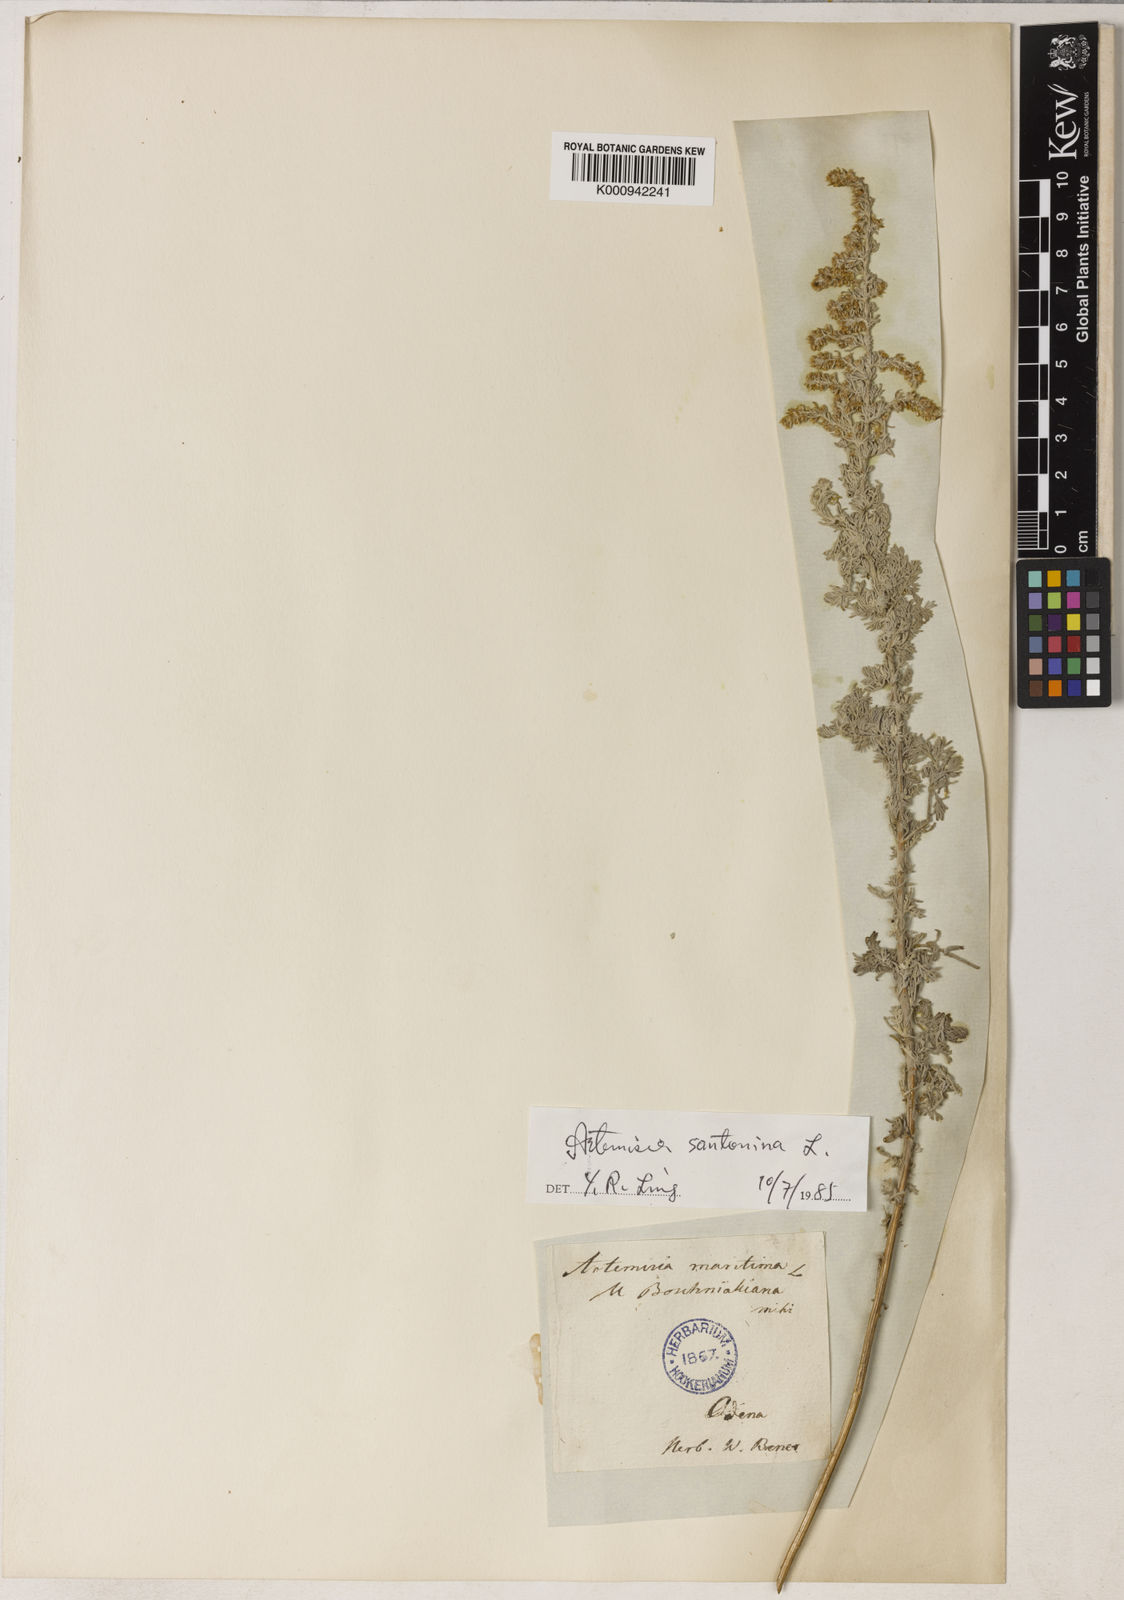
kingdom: Plantae
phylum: Tracheophyta
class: Magnoliopsida
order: Asterales
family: Asteraceae
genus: Seriphidium
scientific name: Seriphidium
